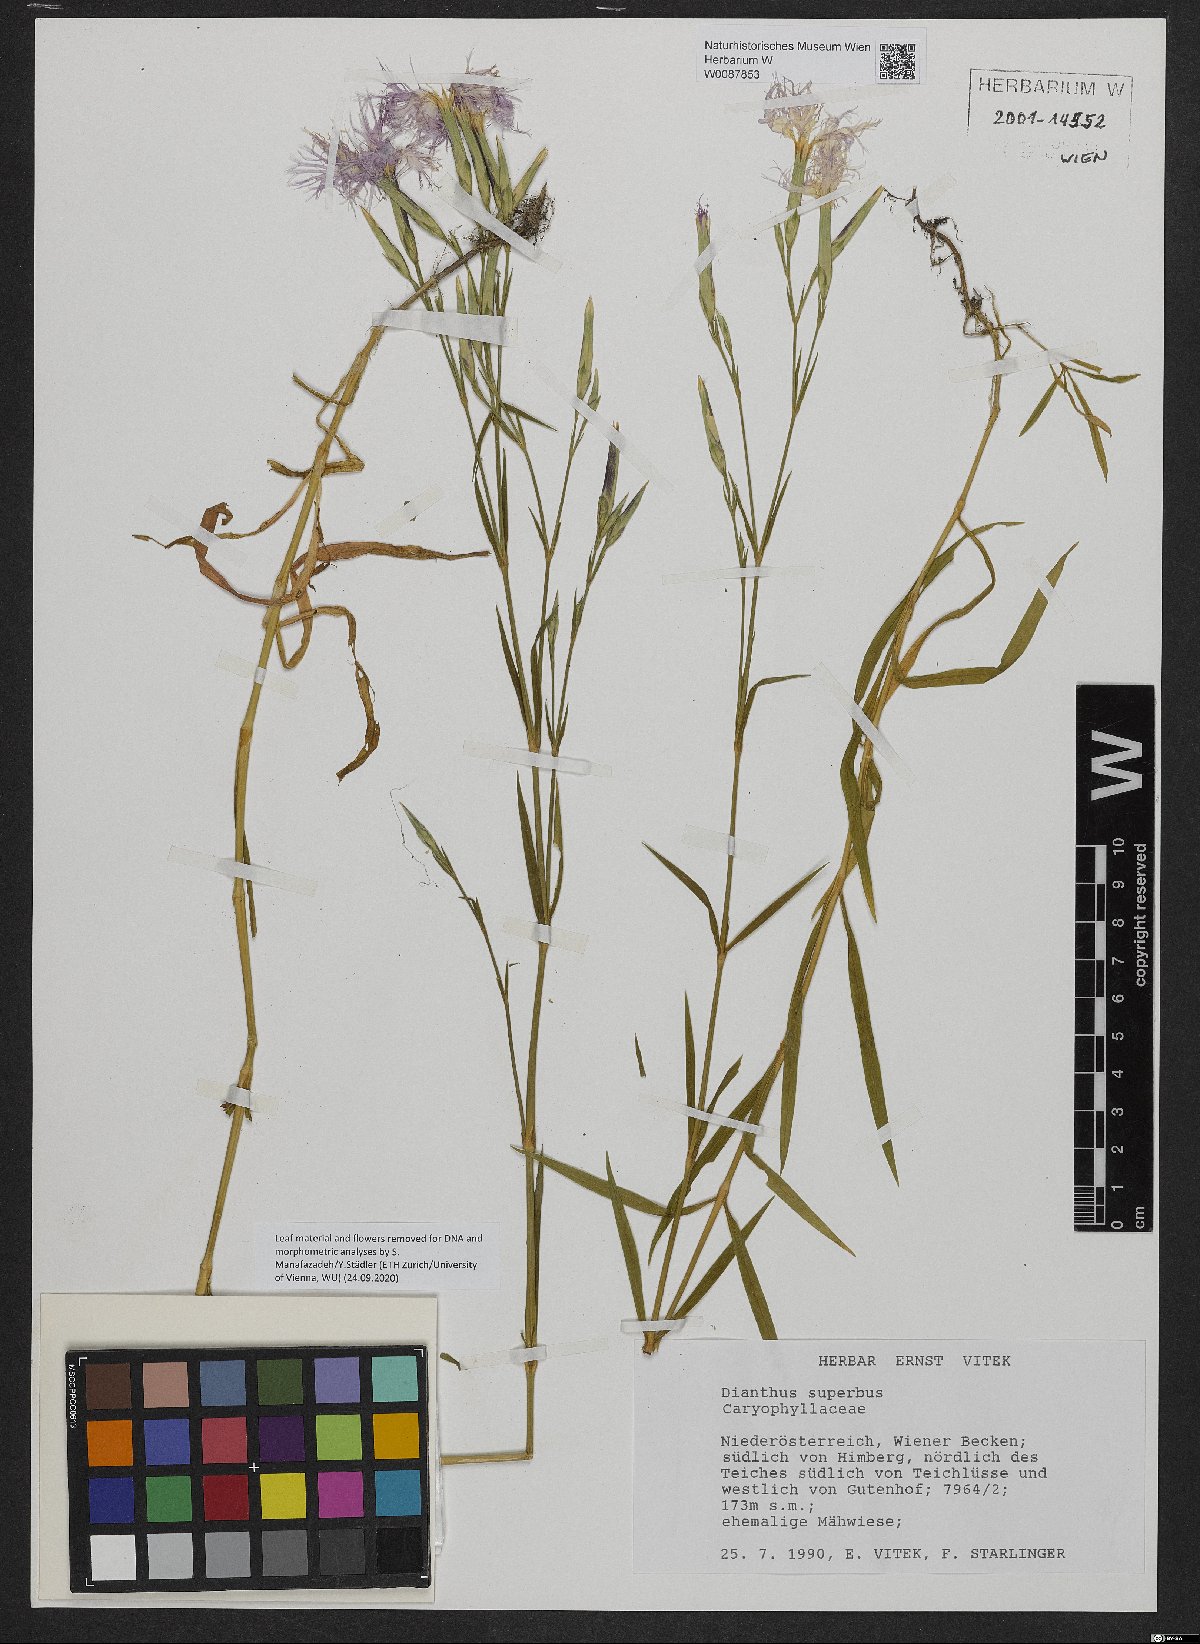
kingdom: Plantae
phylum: Tracheophyta
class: Magnoliopsida
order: Caryophyllales
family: Caryophyllaceae
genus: Dianthus
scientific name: Dianthus superbus
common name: Fringed pink
